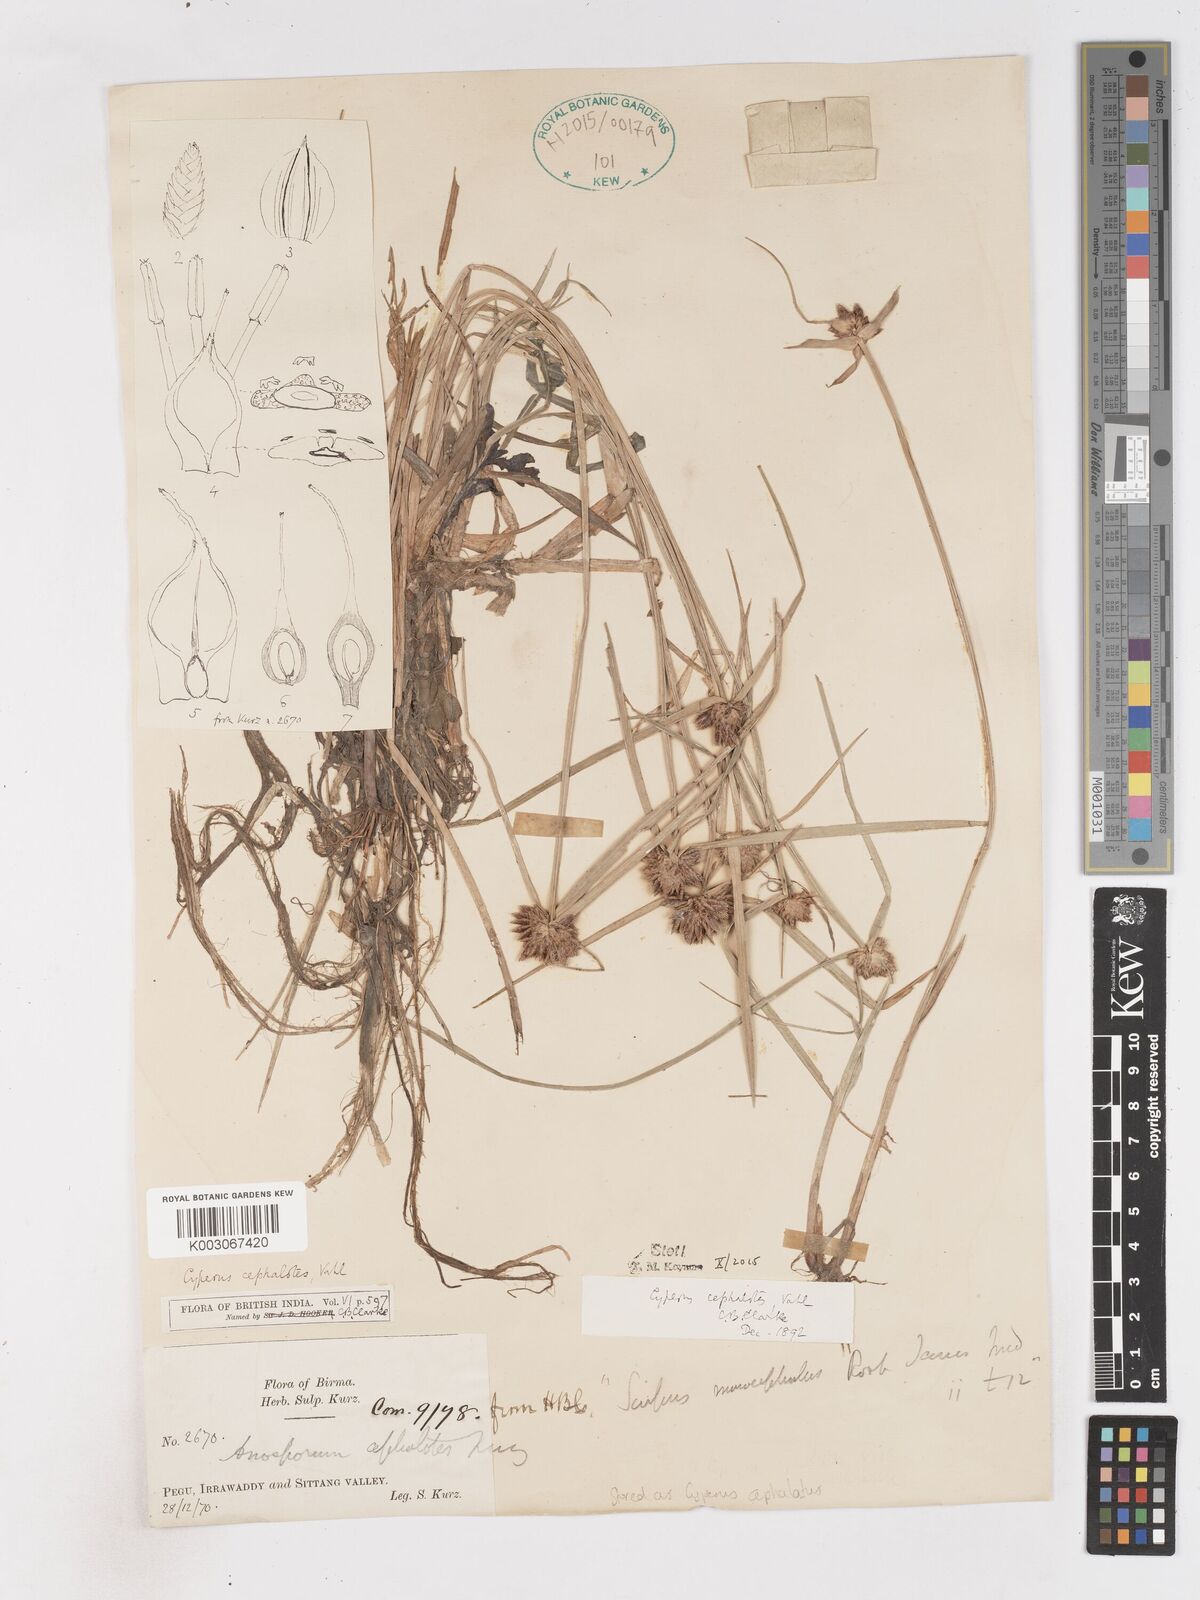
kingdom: Plantae
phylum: Tracheophyta
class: Liliopsida
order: Poales
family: Cyperaceae
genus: Cyperus
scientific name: Cyperus cephalotes
